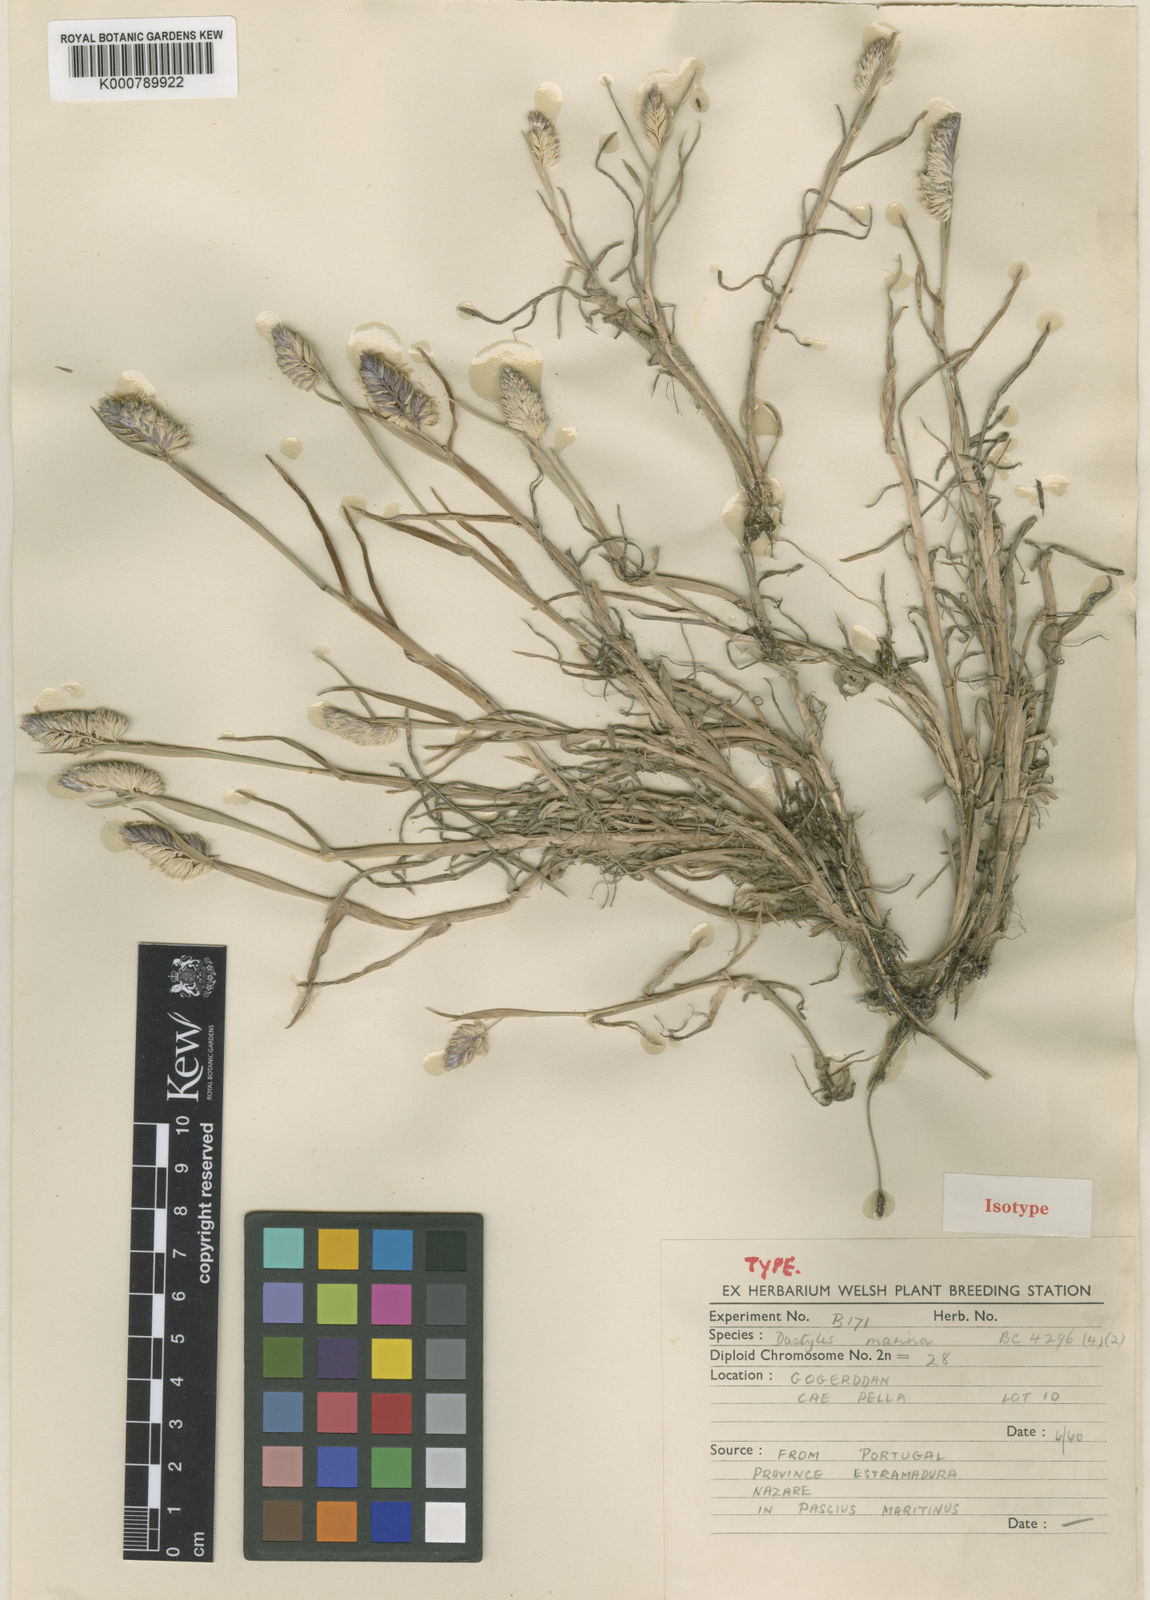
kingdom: Plantae
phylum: Tracheophyta
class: Liliopsida
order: Poales
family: Poaceae
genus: Dactylis
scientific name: Dactylis glomerata
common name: Orchardgrass
